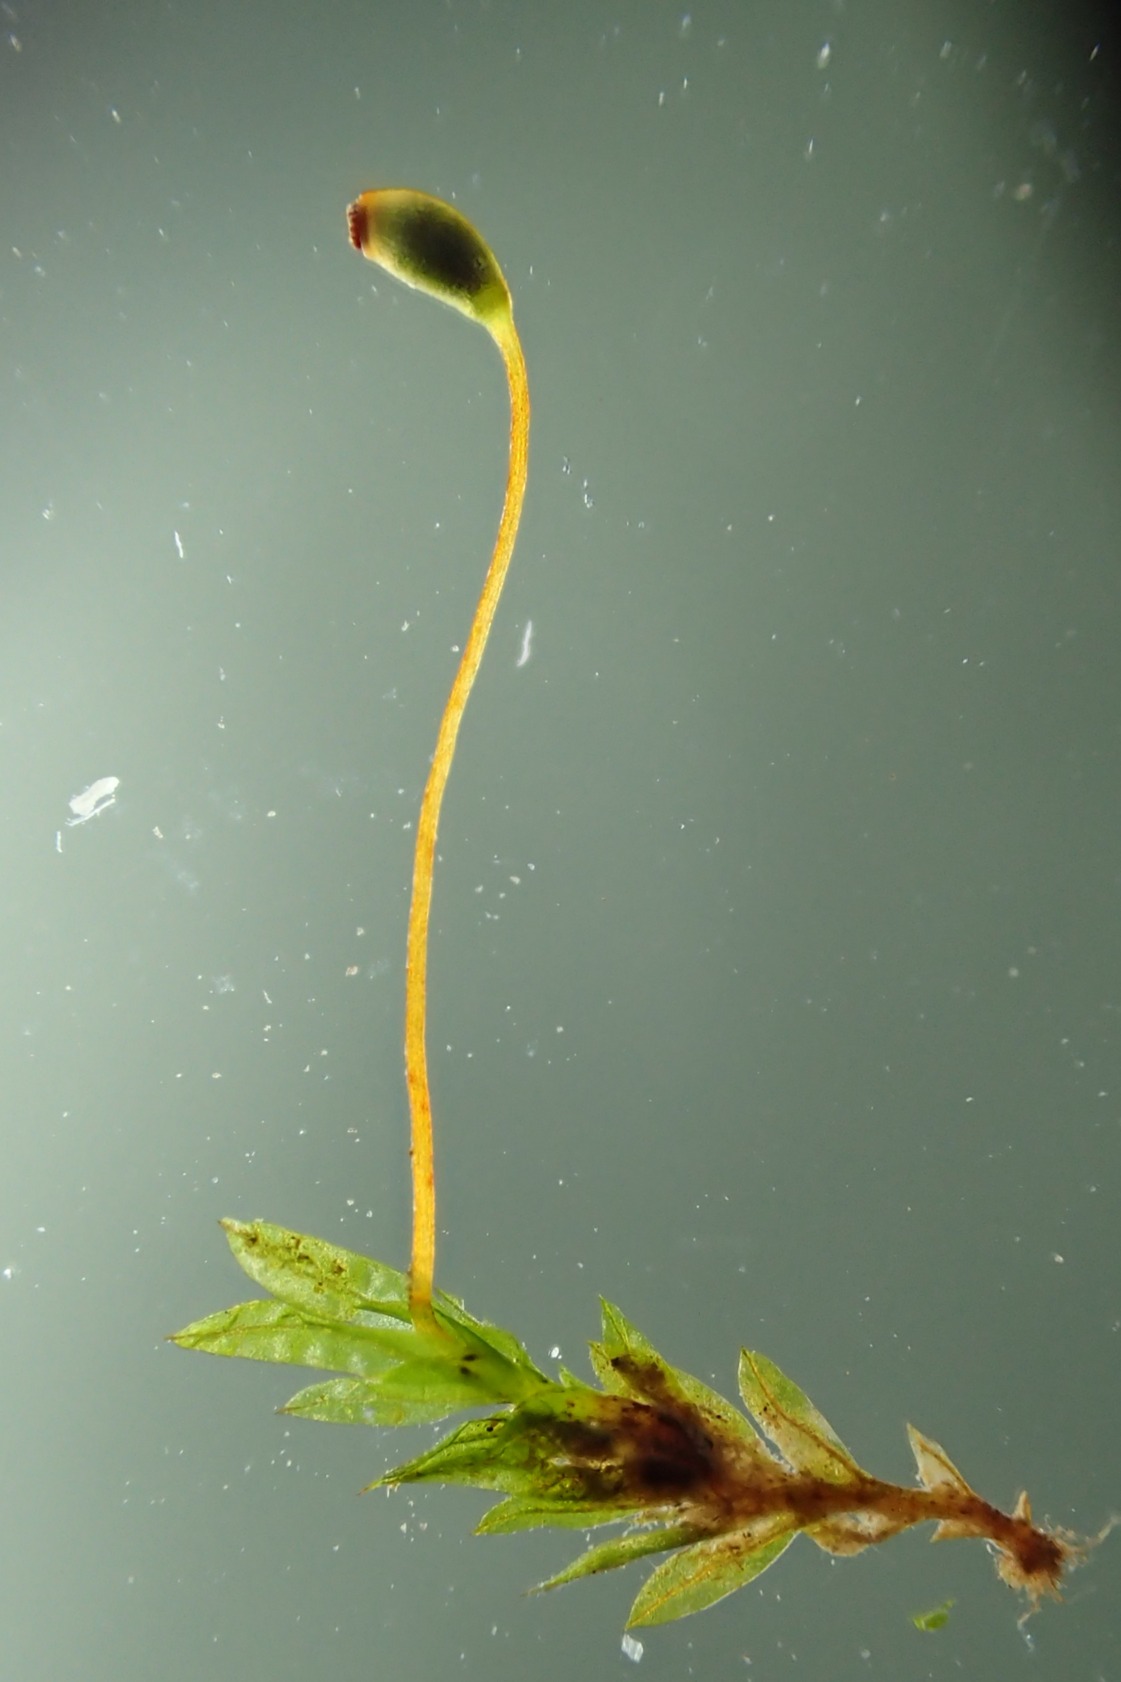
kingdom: Plantae
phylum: Bryophyta
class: Bryopsida
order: Dicranales
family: Fissidentaceae
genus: Fissidens
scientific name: Fissidens incurvus
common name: Nikkende rademos
